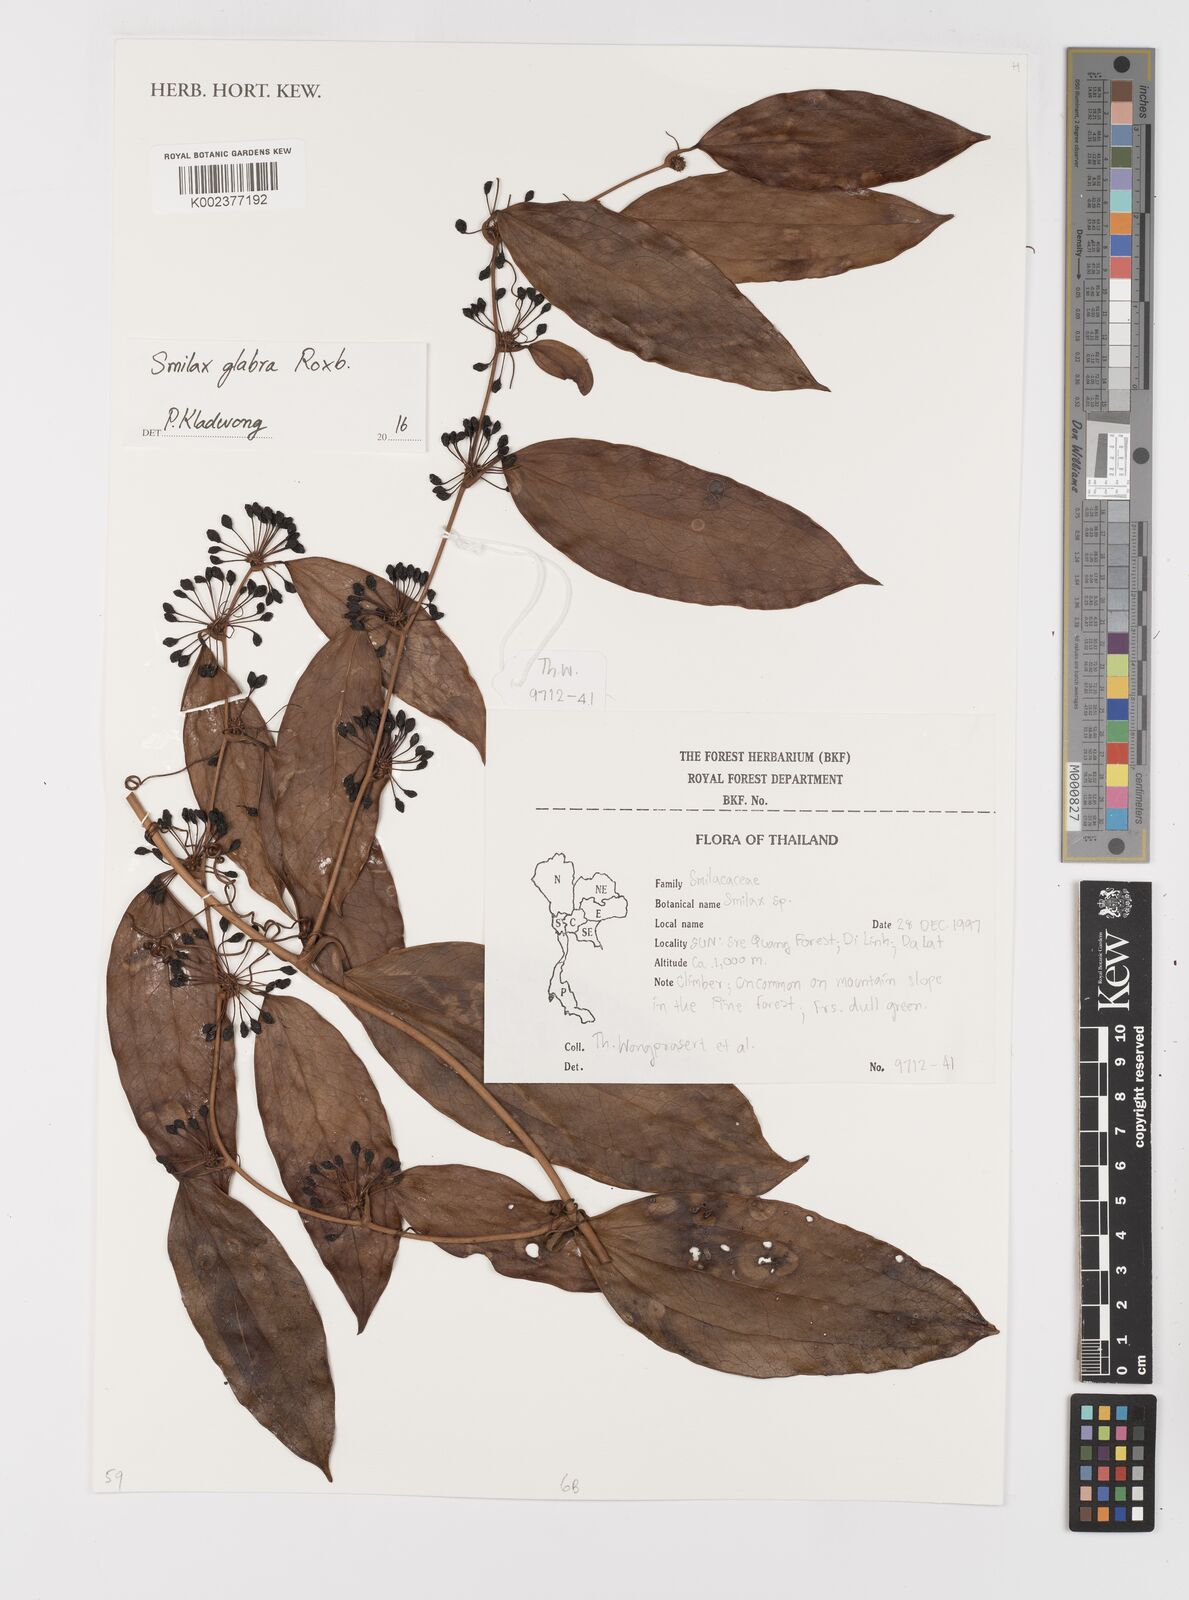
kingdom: Plantae
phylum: Tracheophyta
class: Liliopsida
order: Liliales
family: Smilacaceae
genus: Smilax
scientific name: Smilax glabra
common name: Chinese smilax
